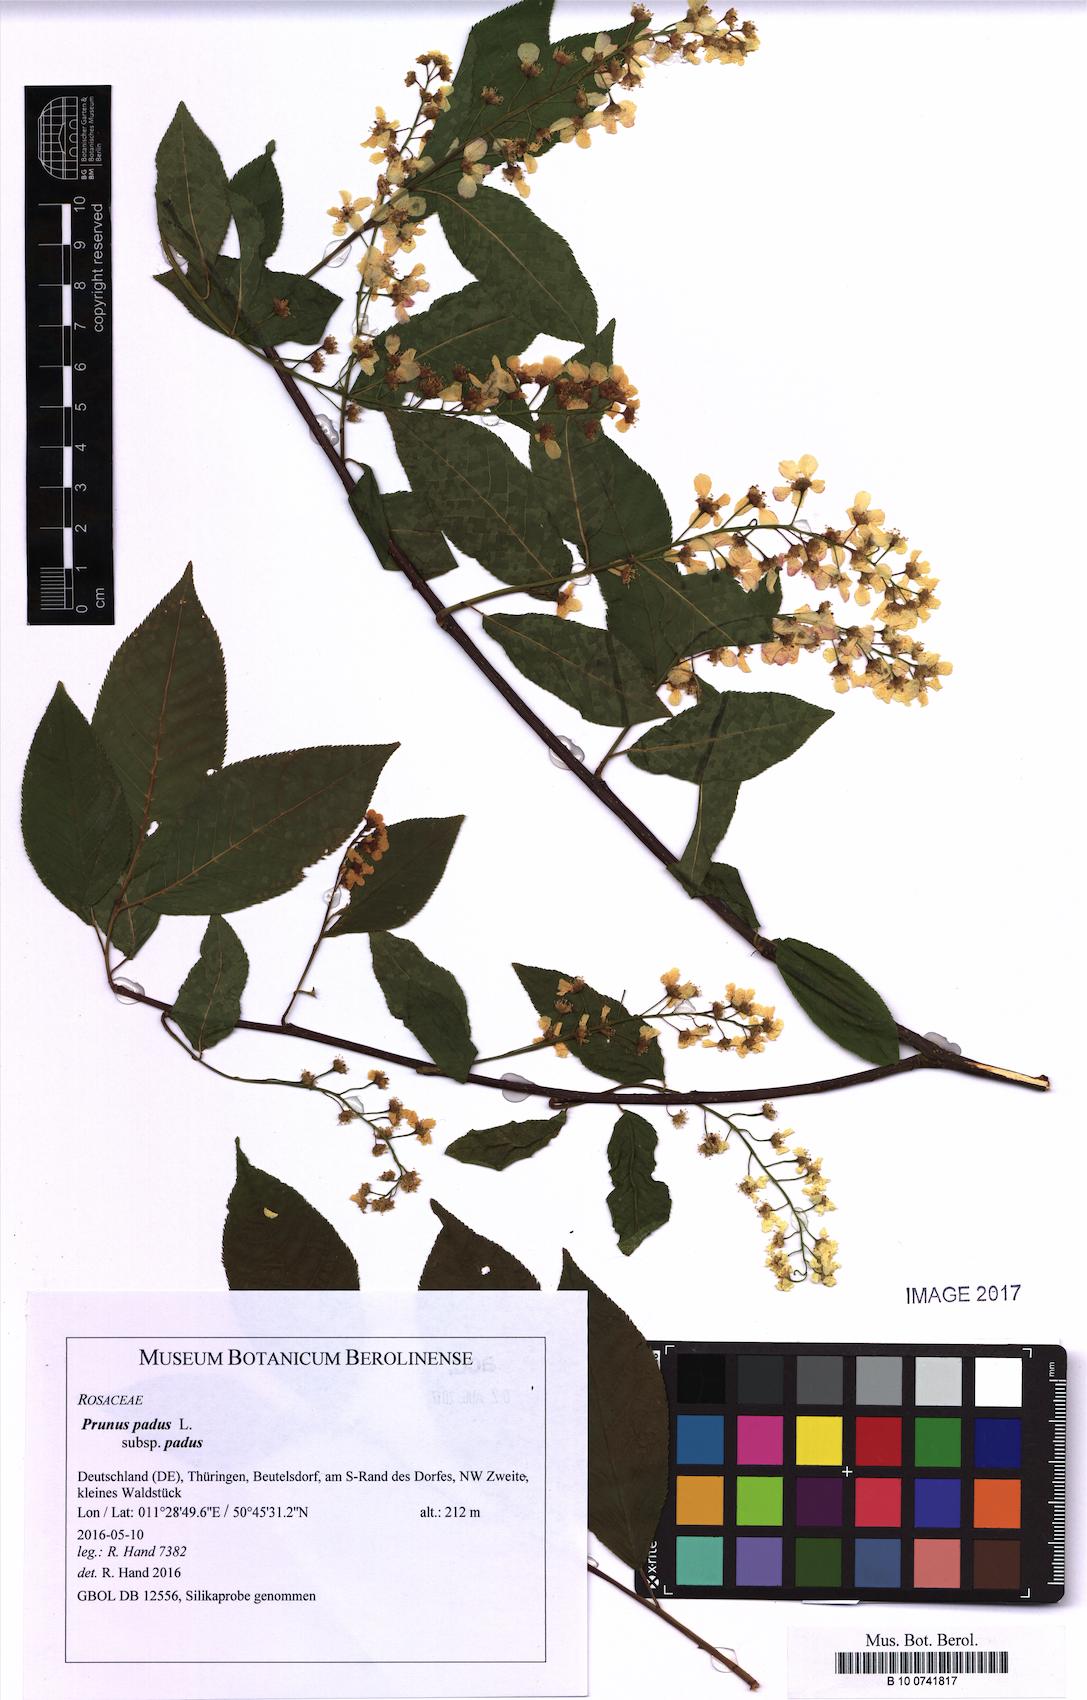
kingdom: Plantae
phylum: Tracheophyta
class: Magnoliopsida
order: Rosales
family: Rosaceae
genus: Prunus
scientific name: Prunus padus
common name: Bird cherry
